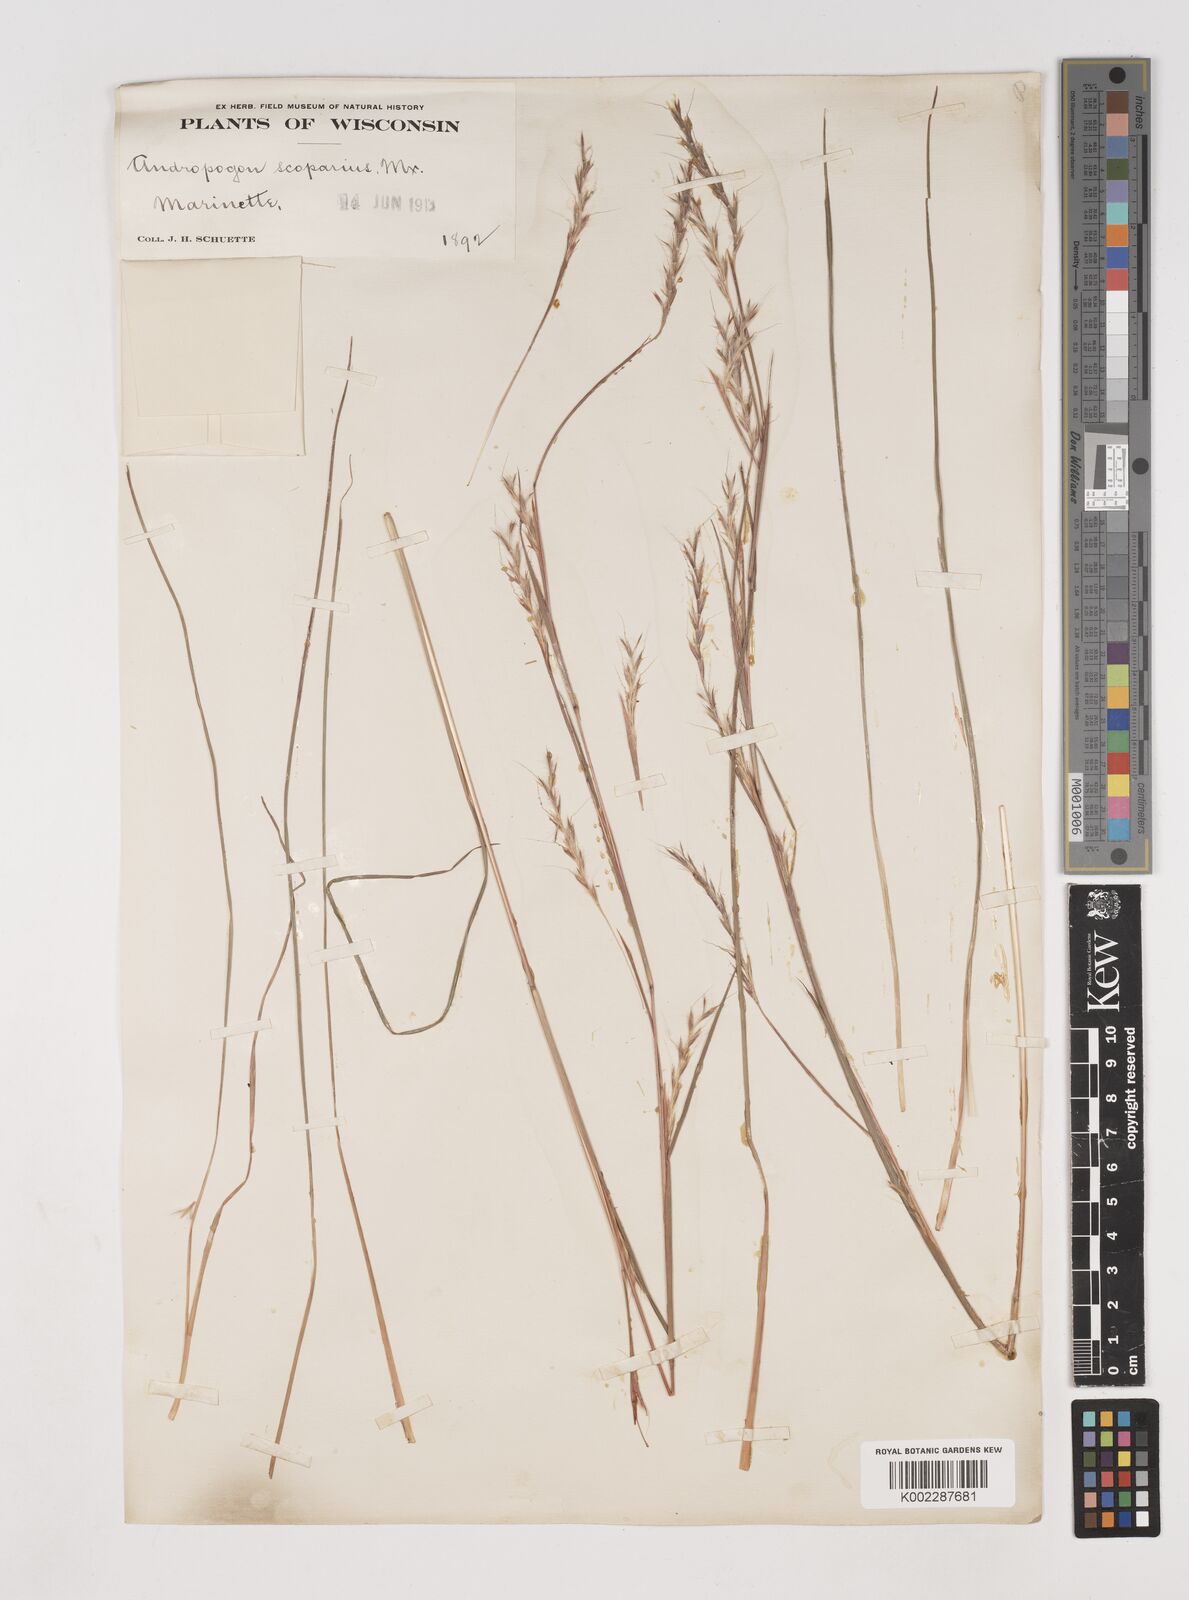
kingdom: Plantae
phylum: Tracheophyta
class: Liliopsida
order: Poales
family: Poaceae
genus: Schizachyrium
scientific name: Schizachyrium scoparium
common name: Little bluestem
